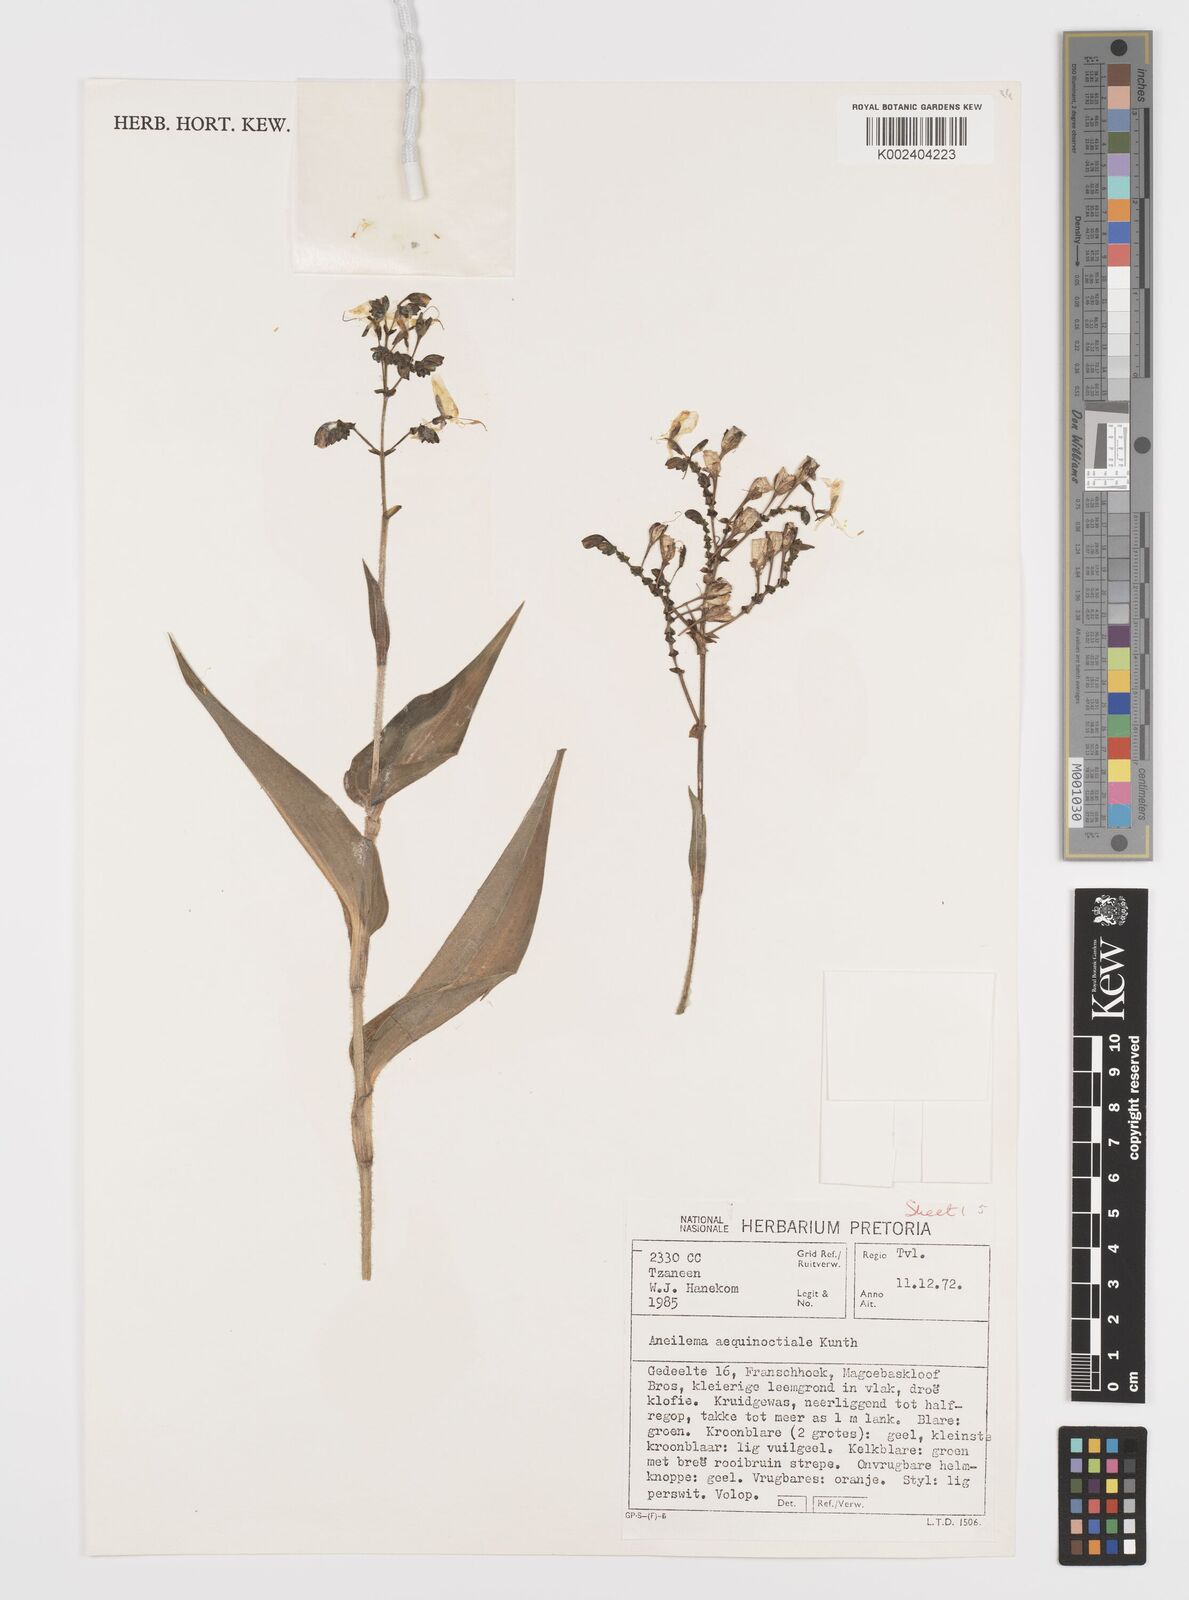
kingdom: Plantae
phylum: Tracheophyta
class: Liliopsida
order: Commelinales
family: Commelinaceae
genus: Aneilema
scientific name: Aneilema aequinoctiale
